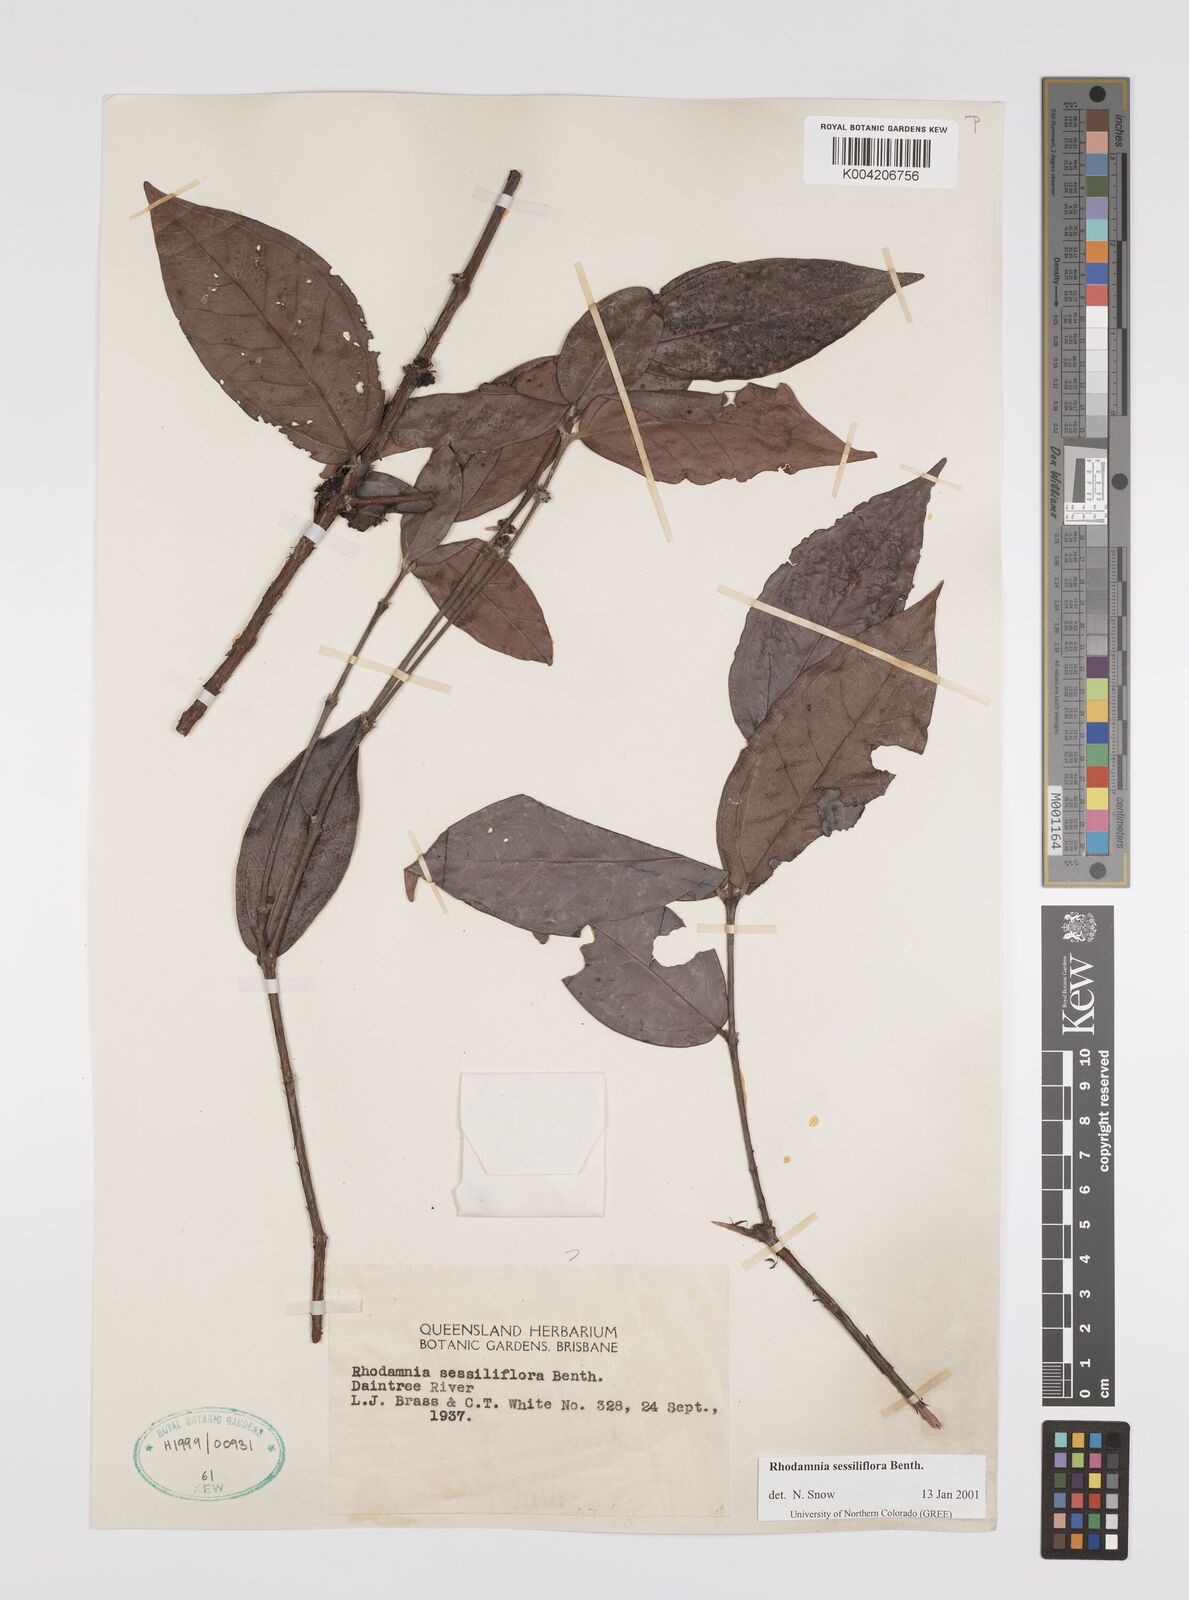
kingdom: Plantae
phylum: Tracheophyta
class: Magnoliopsida
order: Myrtales
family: Myrtaceae
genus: Rhodamnia
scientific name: Rhodamnia sessiliflora
